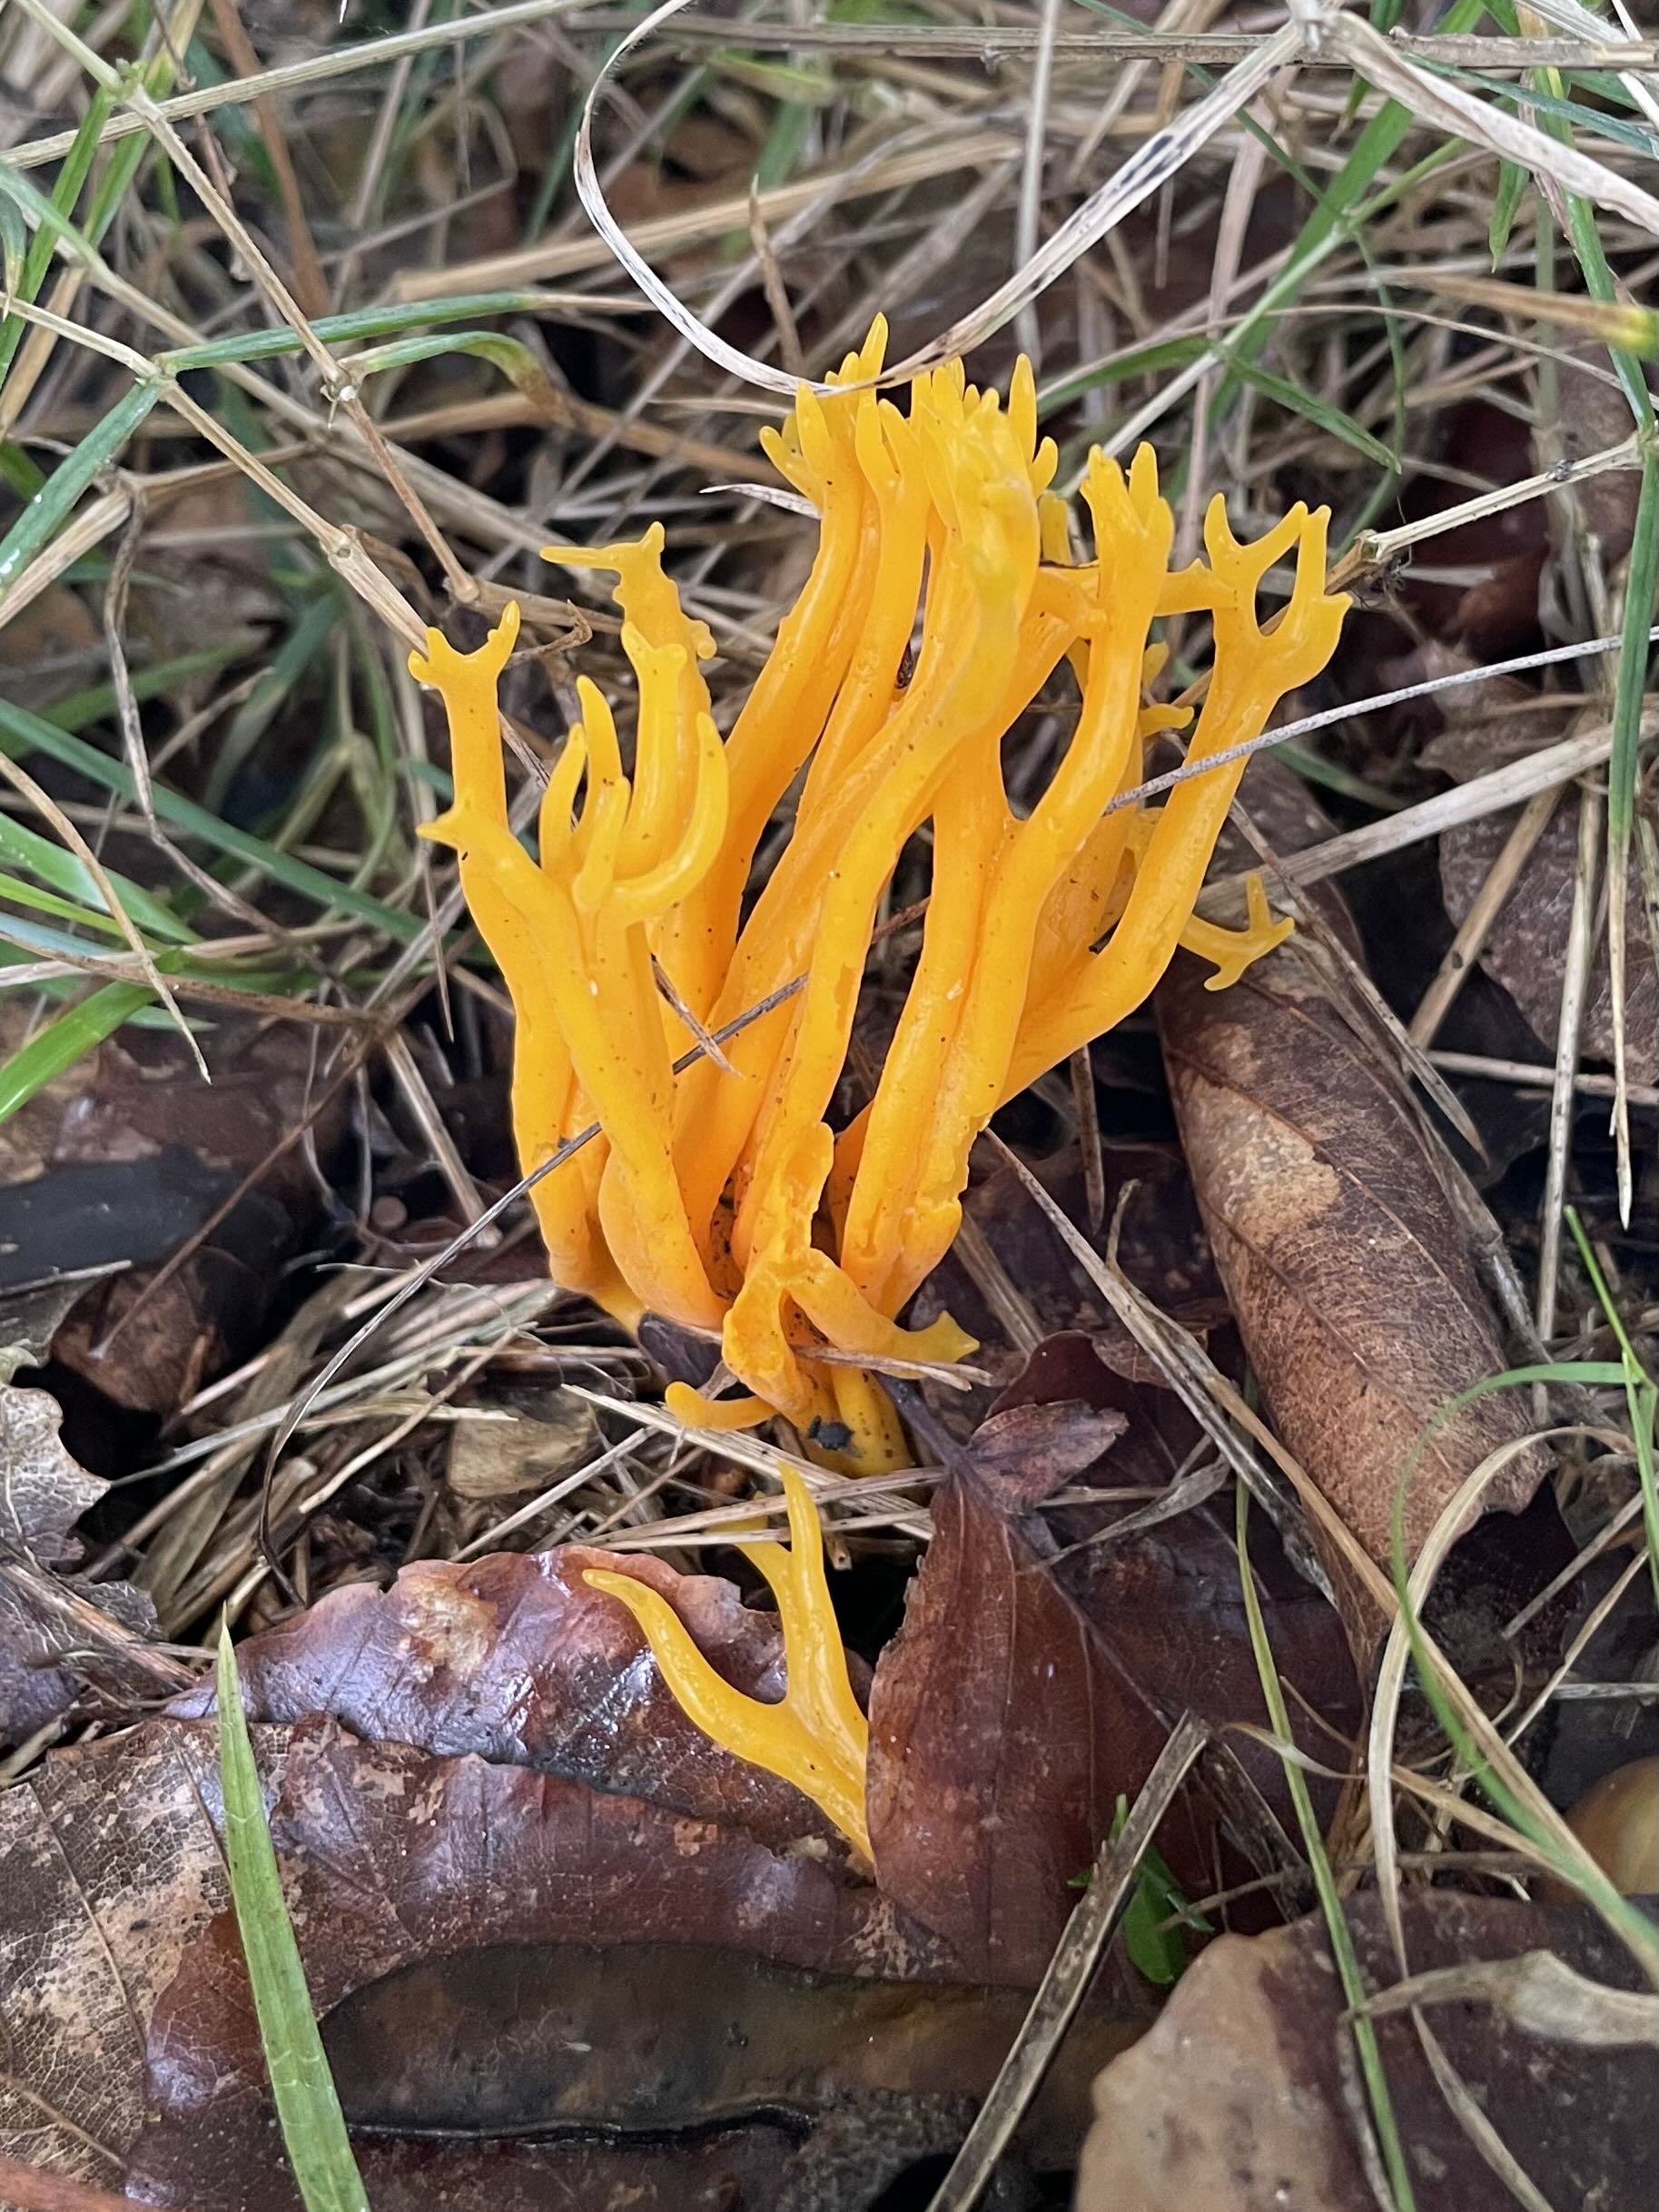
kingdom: Fungi
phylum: Basidiomycota
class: Dacrymycetes
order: Dacrymycetales
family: Dacrymycetaceae
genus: Calocera
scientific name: Calocera viscosa
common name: almindelig guldgaffel
